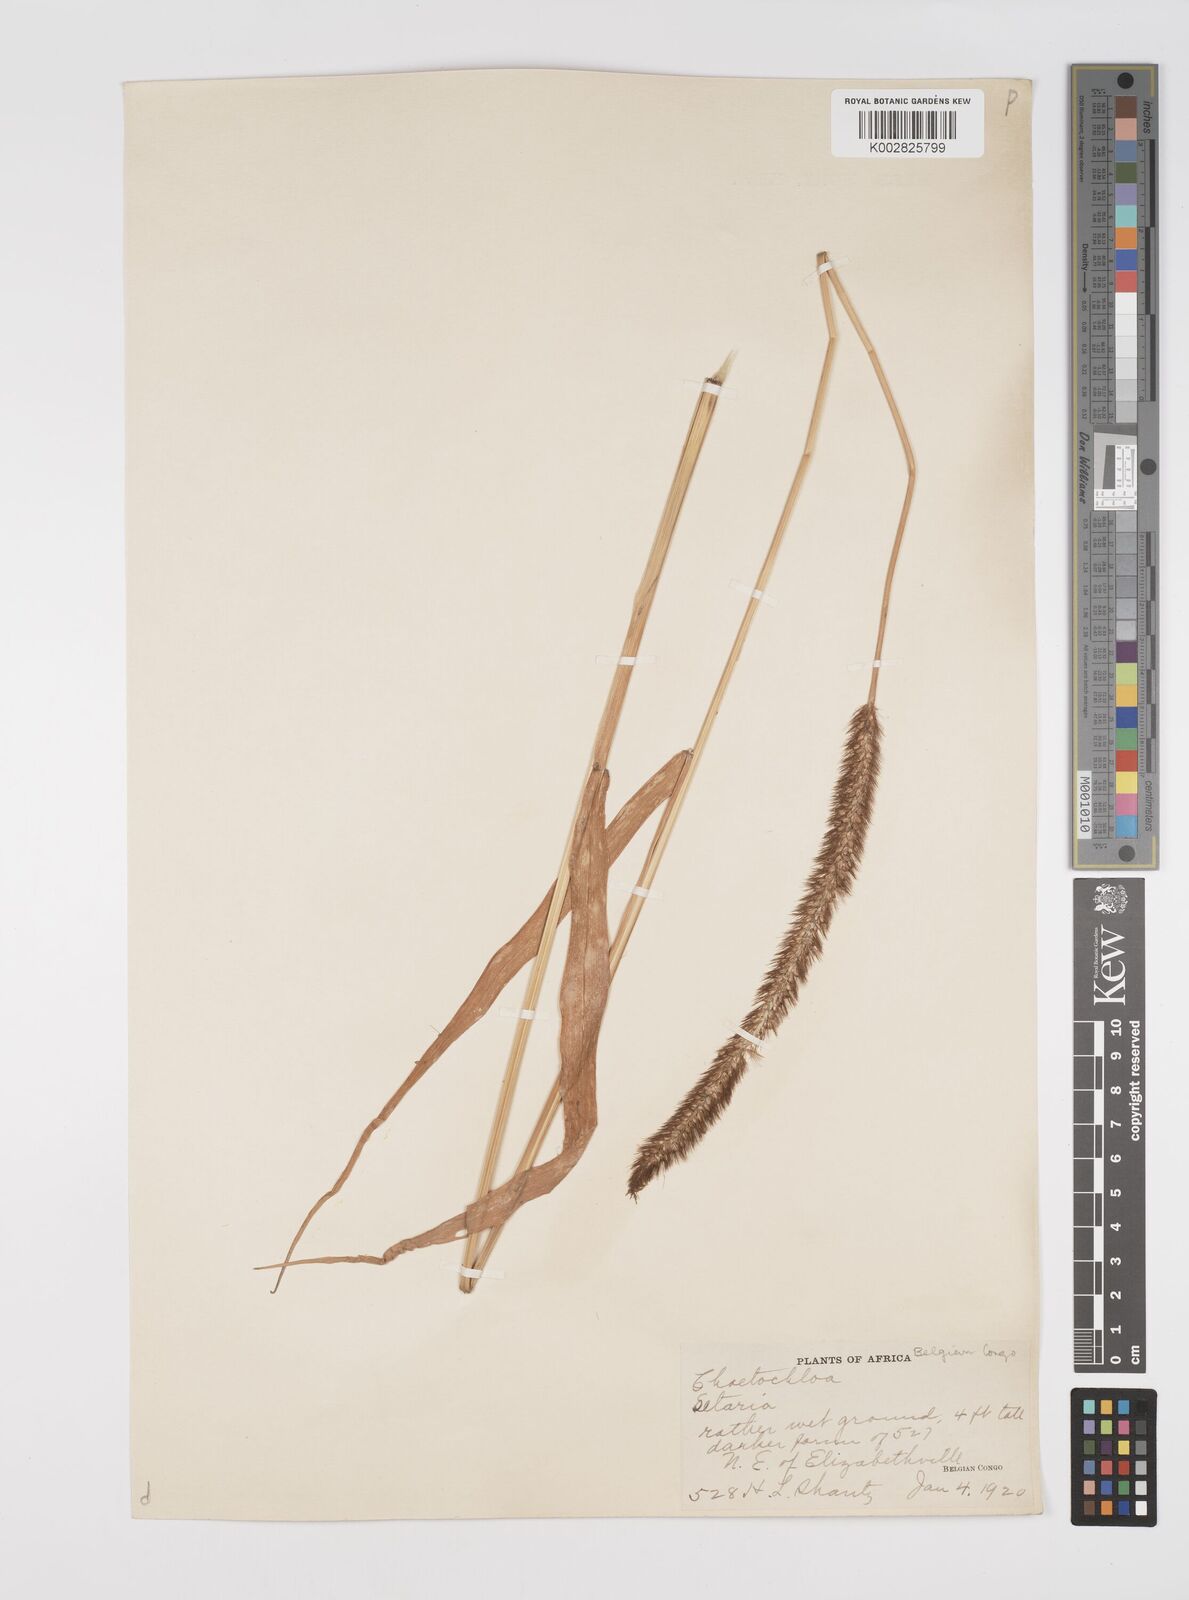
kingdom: Plantae
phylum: Tracheophyta
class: Liliopsida
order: Poales
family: Poaceae
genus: Setaria
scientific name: Setaria sphacelata
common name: African bristlegrass
